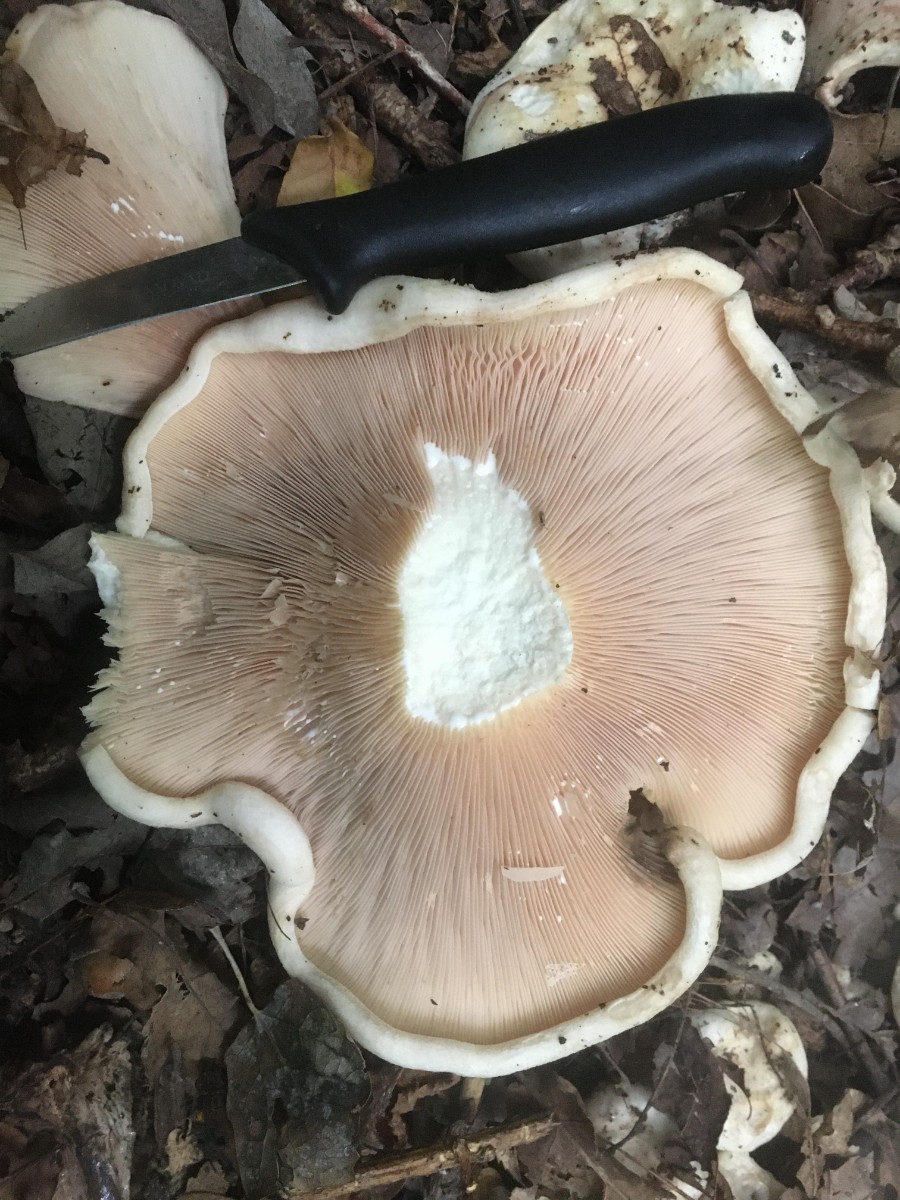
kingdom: Fungi
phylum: Basidiomycota
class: Agaricomycetes
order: Russulales
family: Russulaceae
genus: Lactarius
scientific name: Lactarius controversus
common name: rosabladet mælkehat
